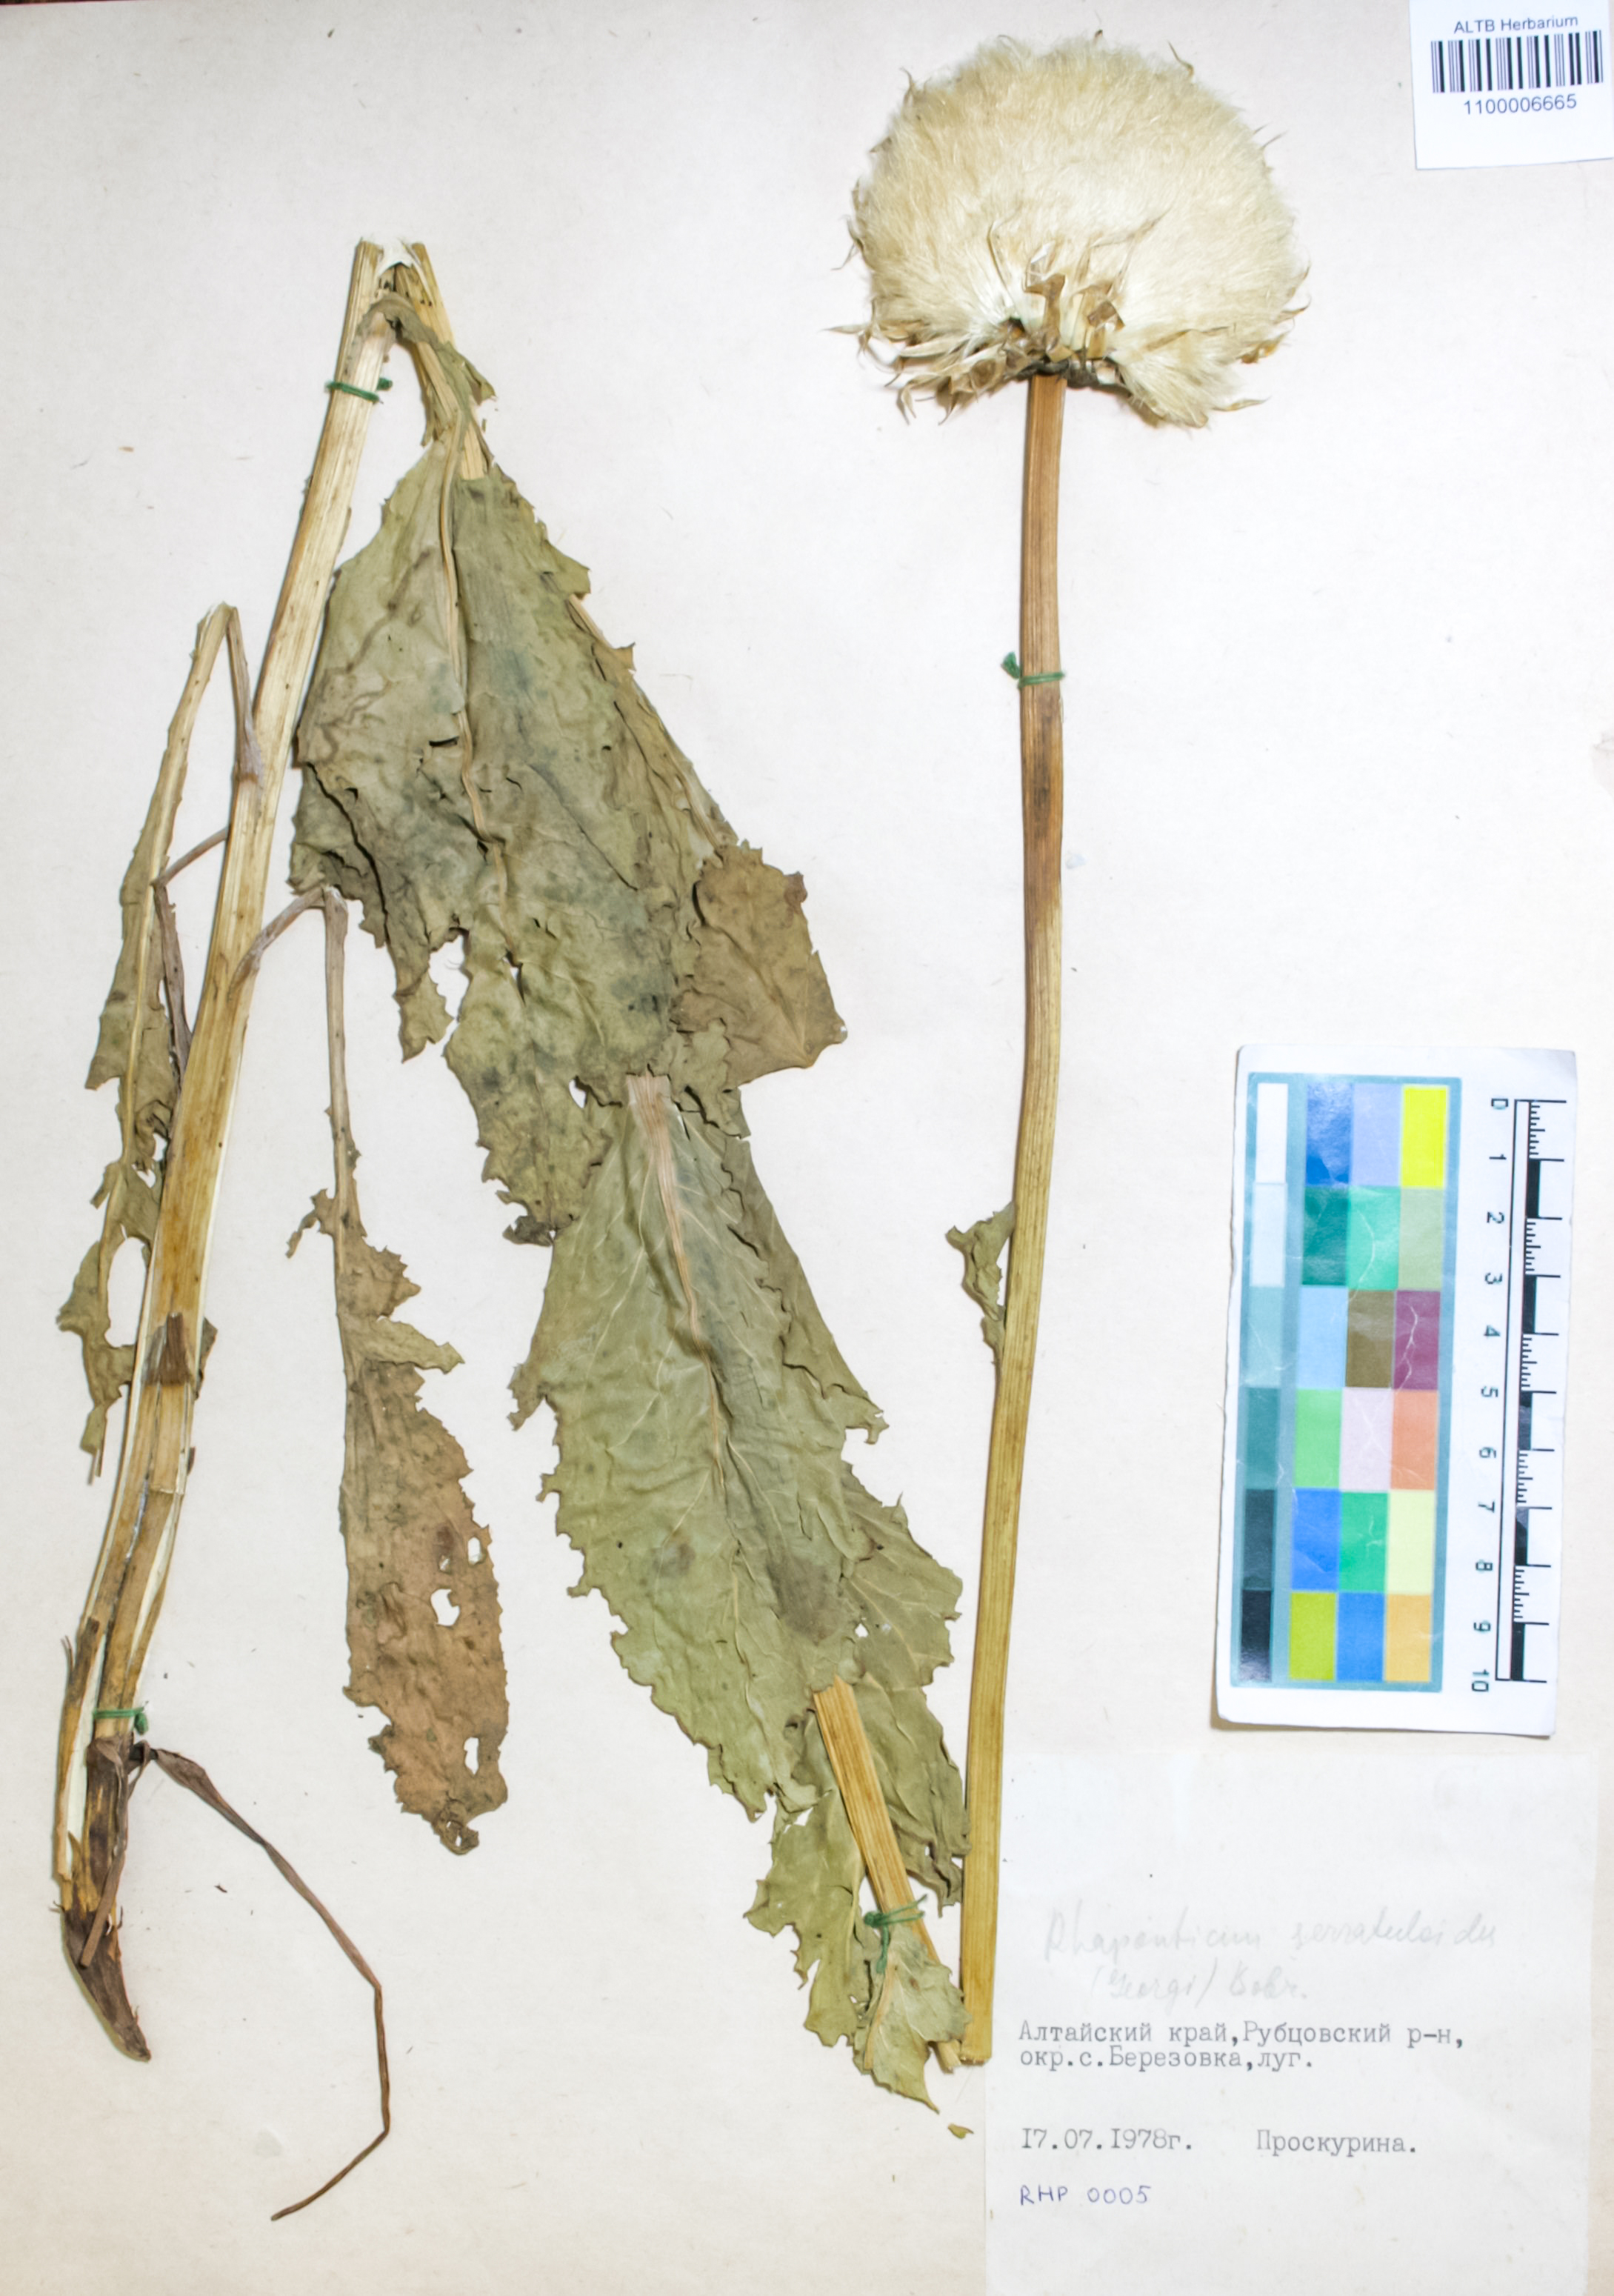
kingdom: Plantae
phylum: Tracheophyta
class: Magnoliopsida
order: Asterales
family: Asteraceae
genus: Leuzea
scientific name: Leuzea altaica
